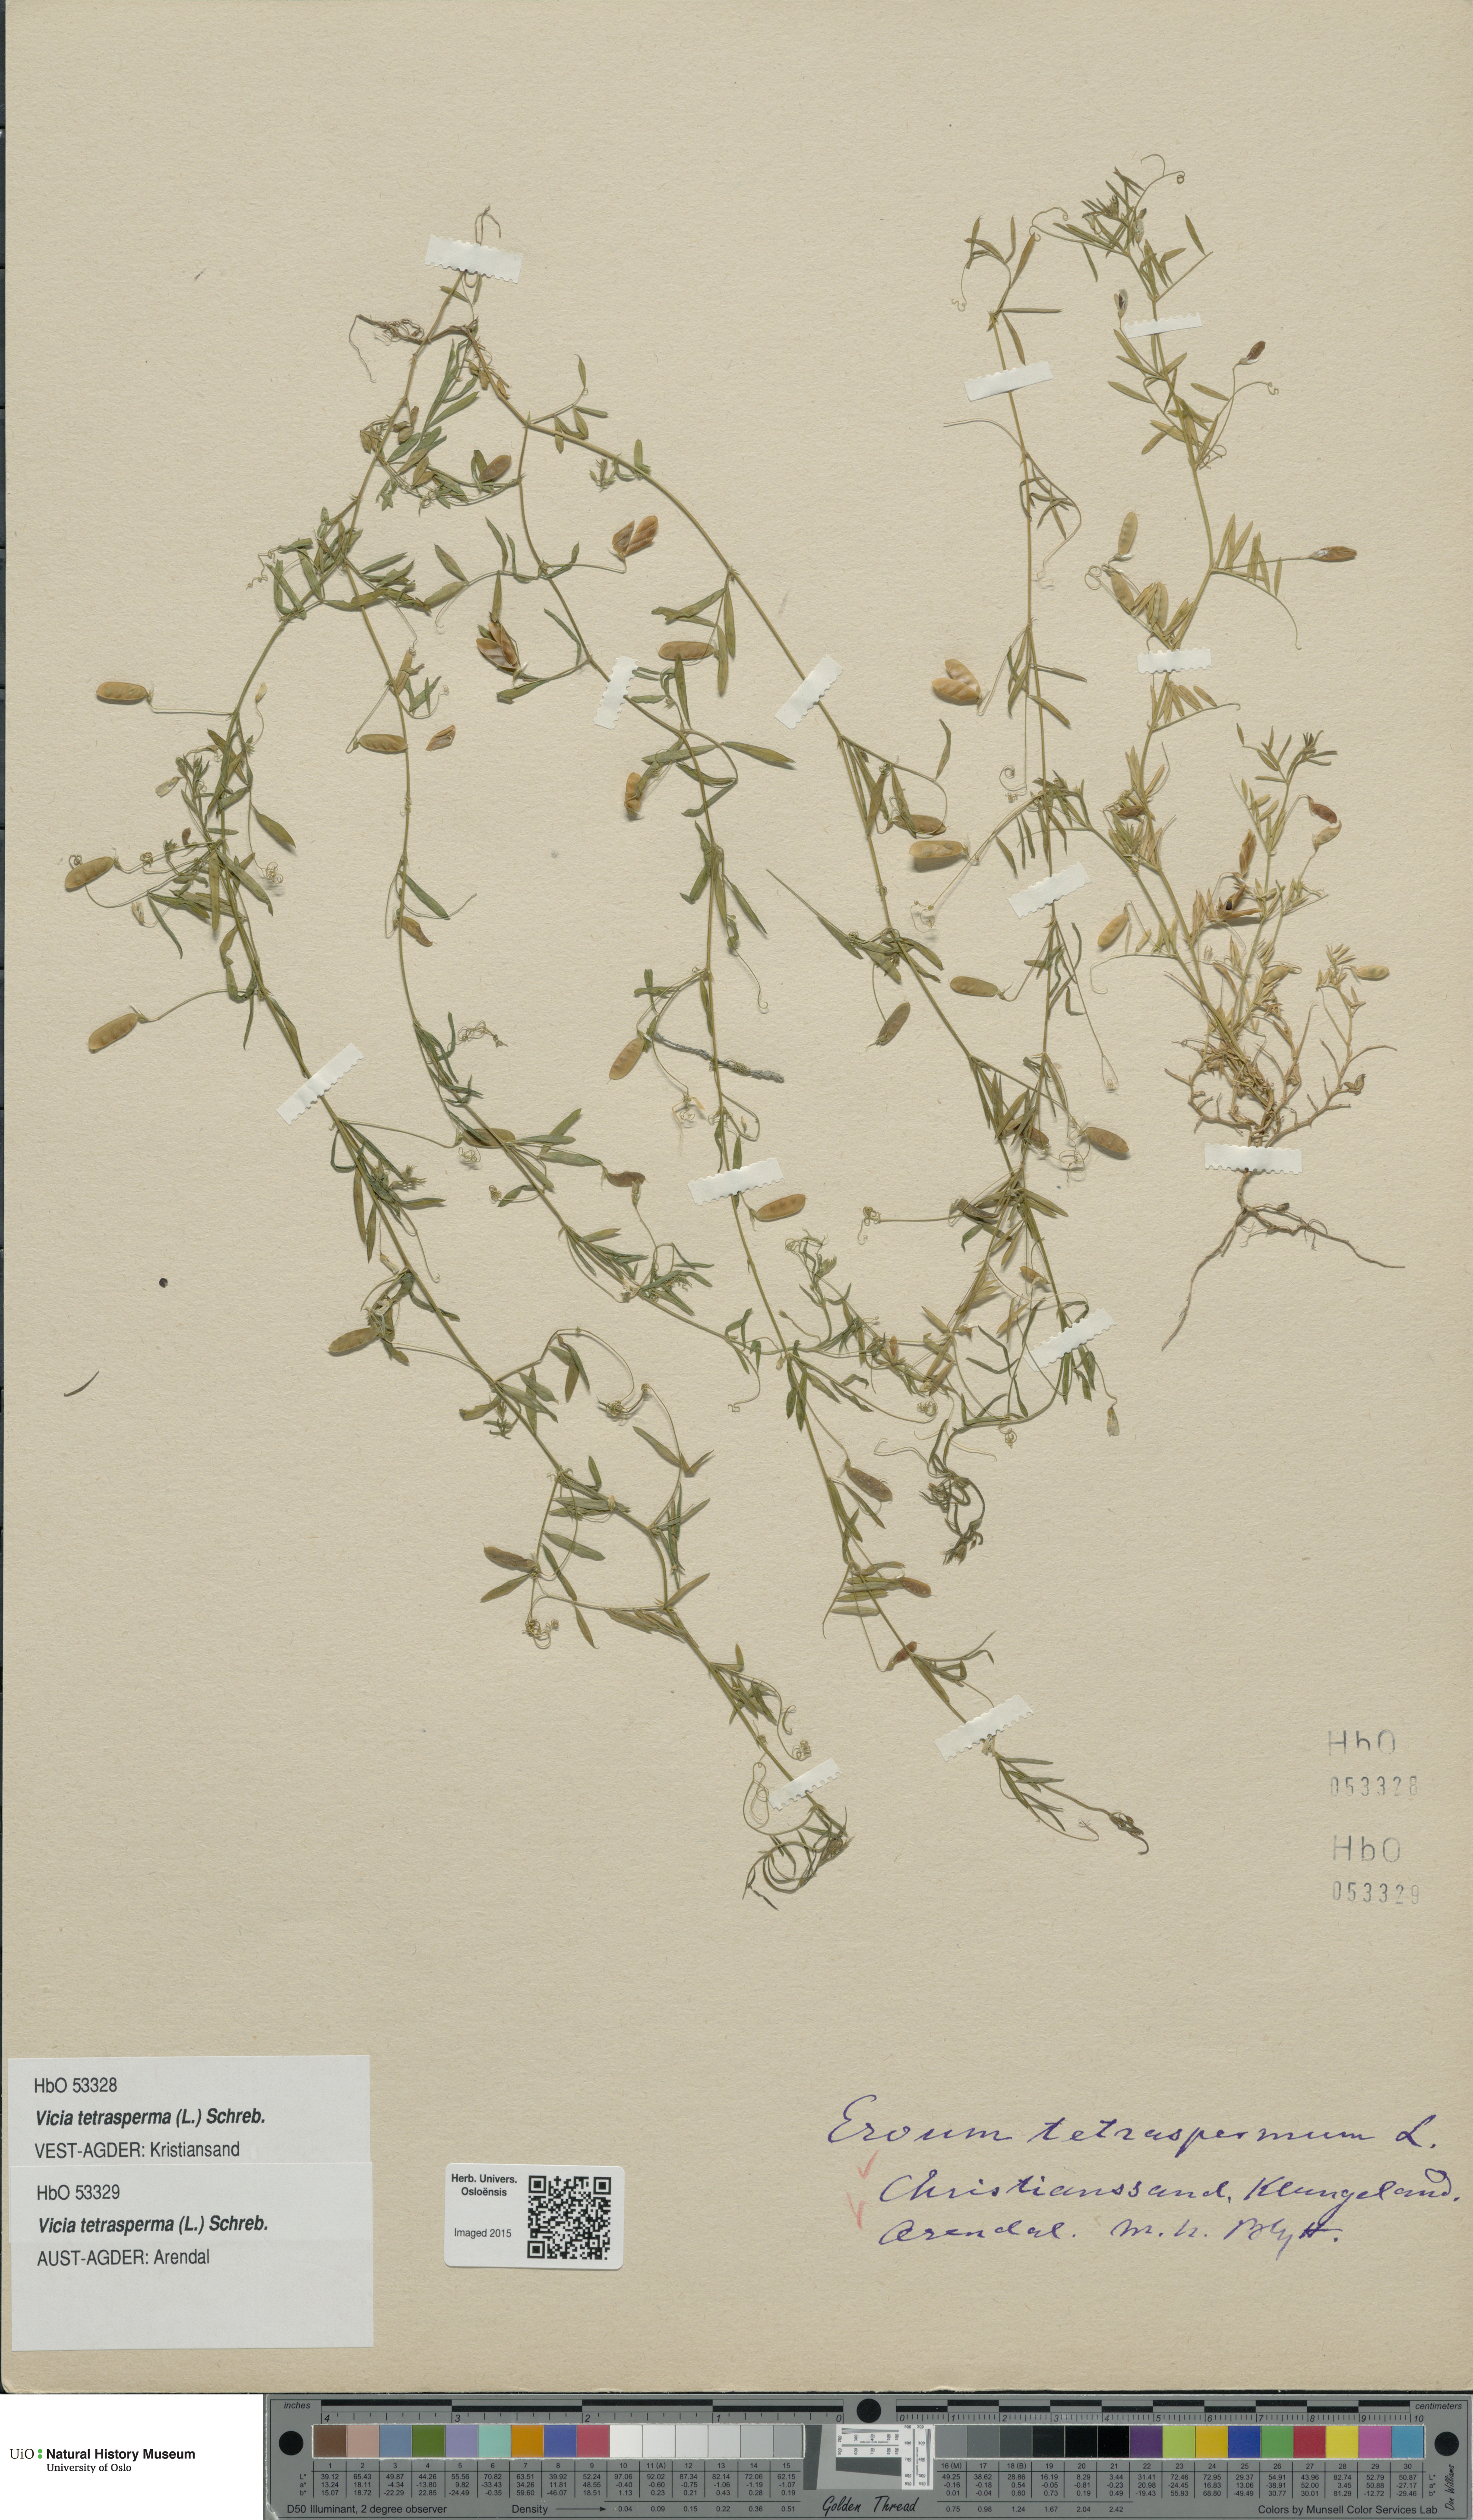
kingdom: Plantae
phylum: Tracheophyta
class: Magnoliopsida
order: Fabales
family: Fabaceae
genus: Vicia
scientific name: Vicia tetrasperma
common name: Smooth tare
